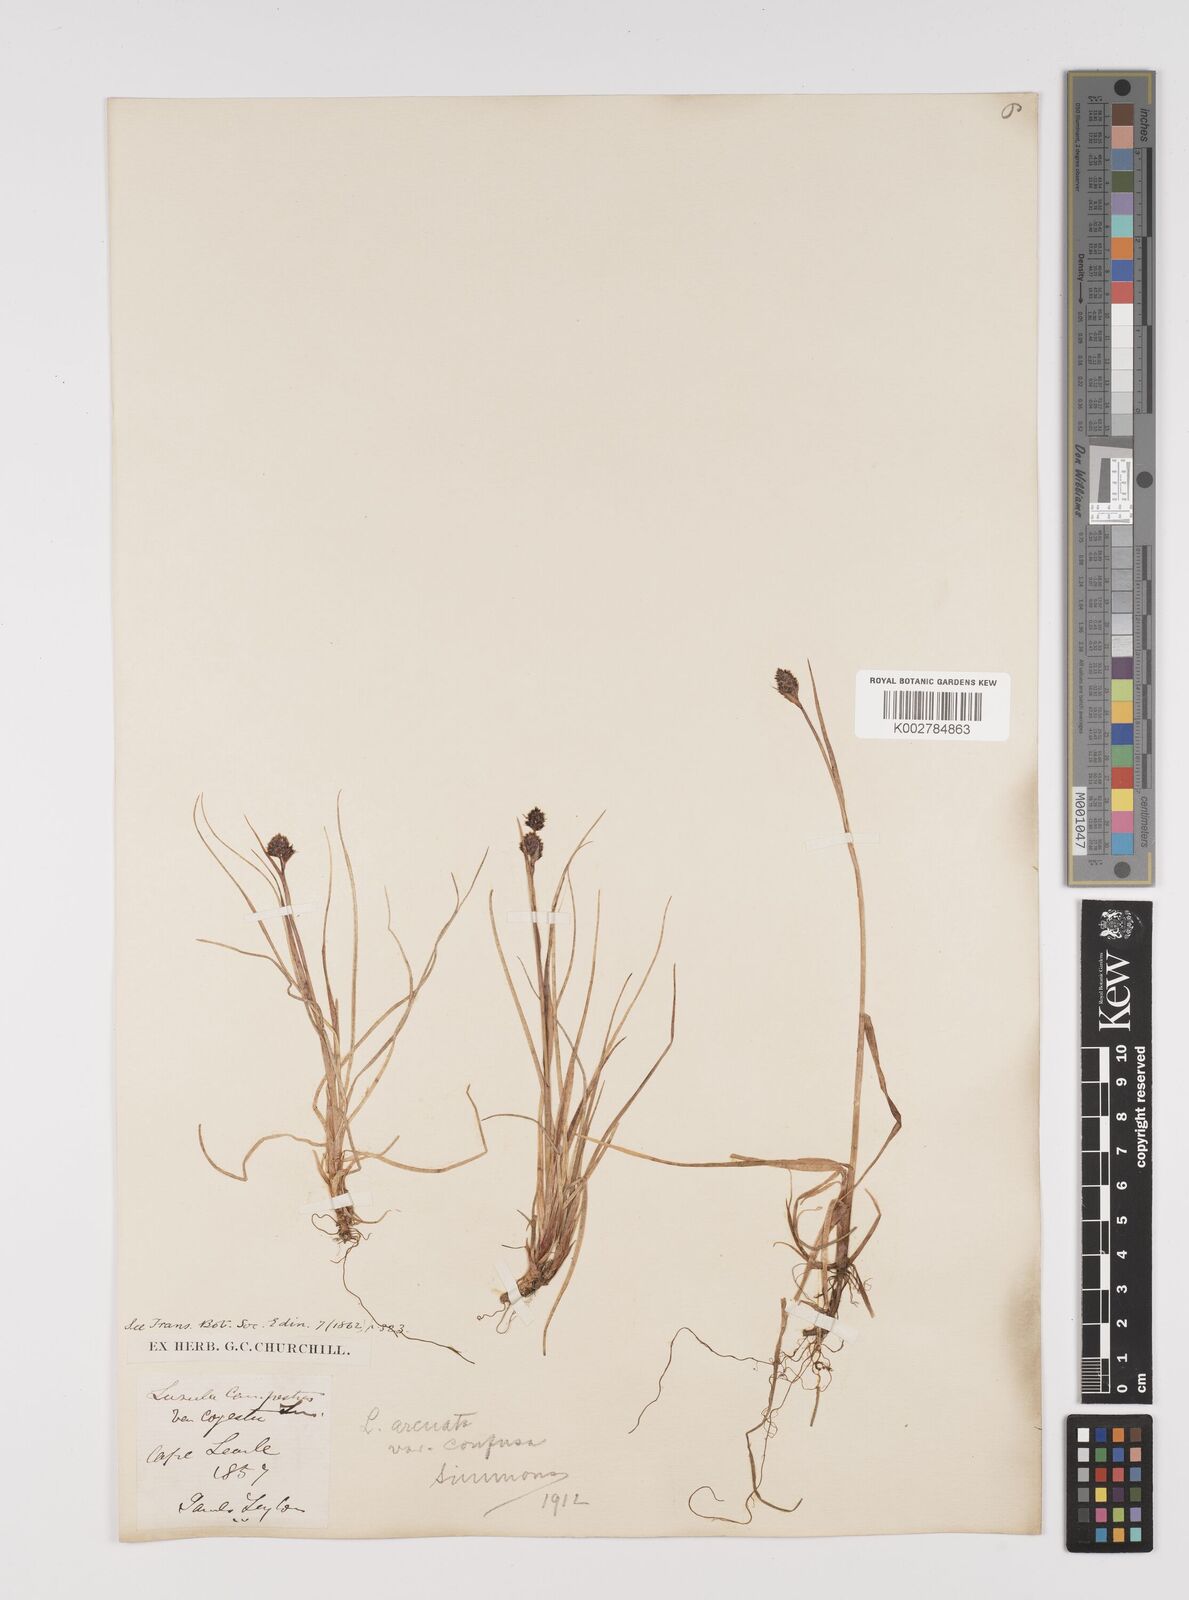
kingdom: Plantae
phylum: Tracheophyta
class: Liliopsida
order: Poales
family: Juncaceae
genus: Luzula
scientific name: Luzula confusa
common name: Northern wood rush
